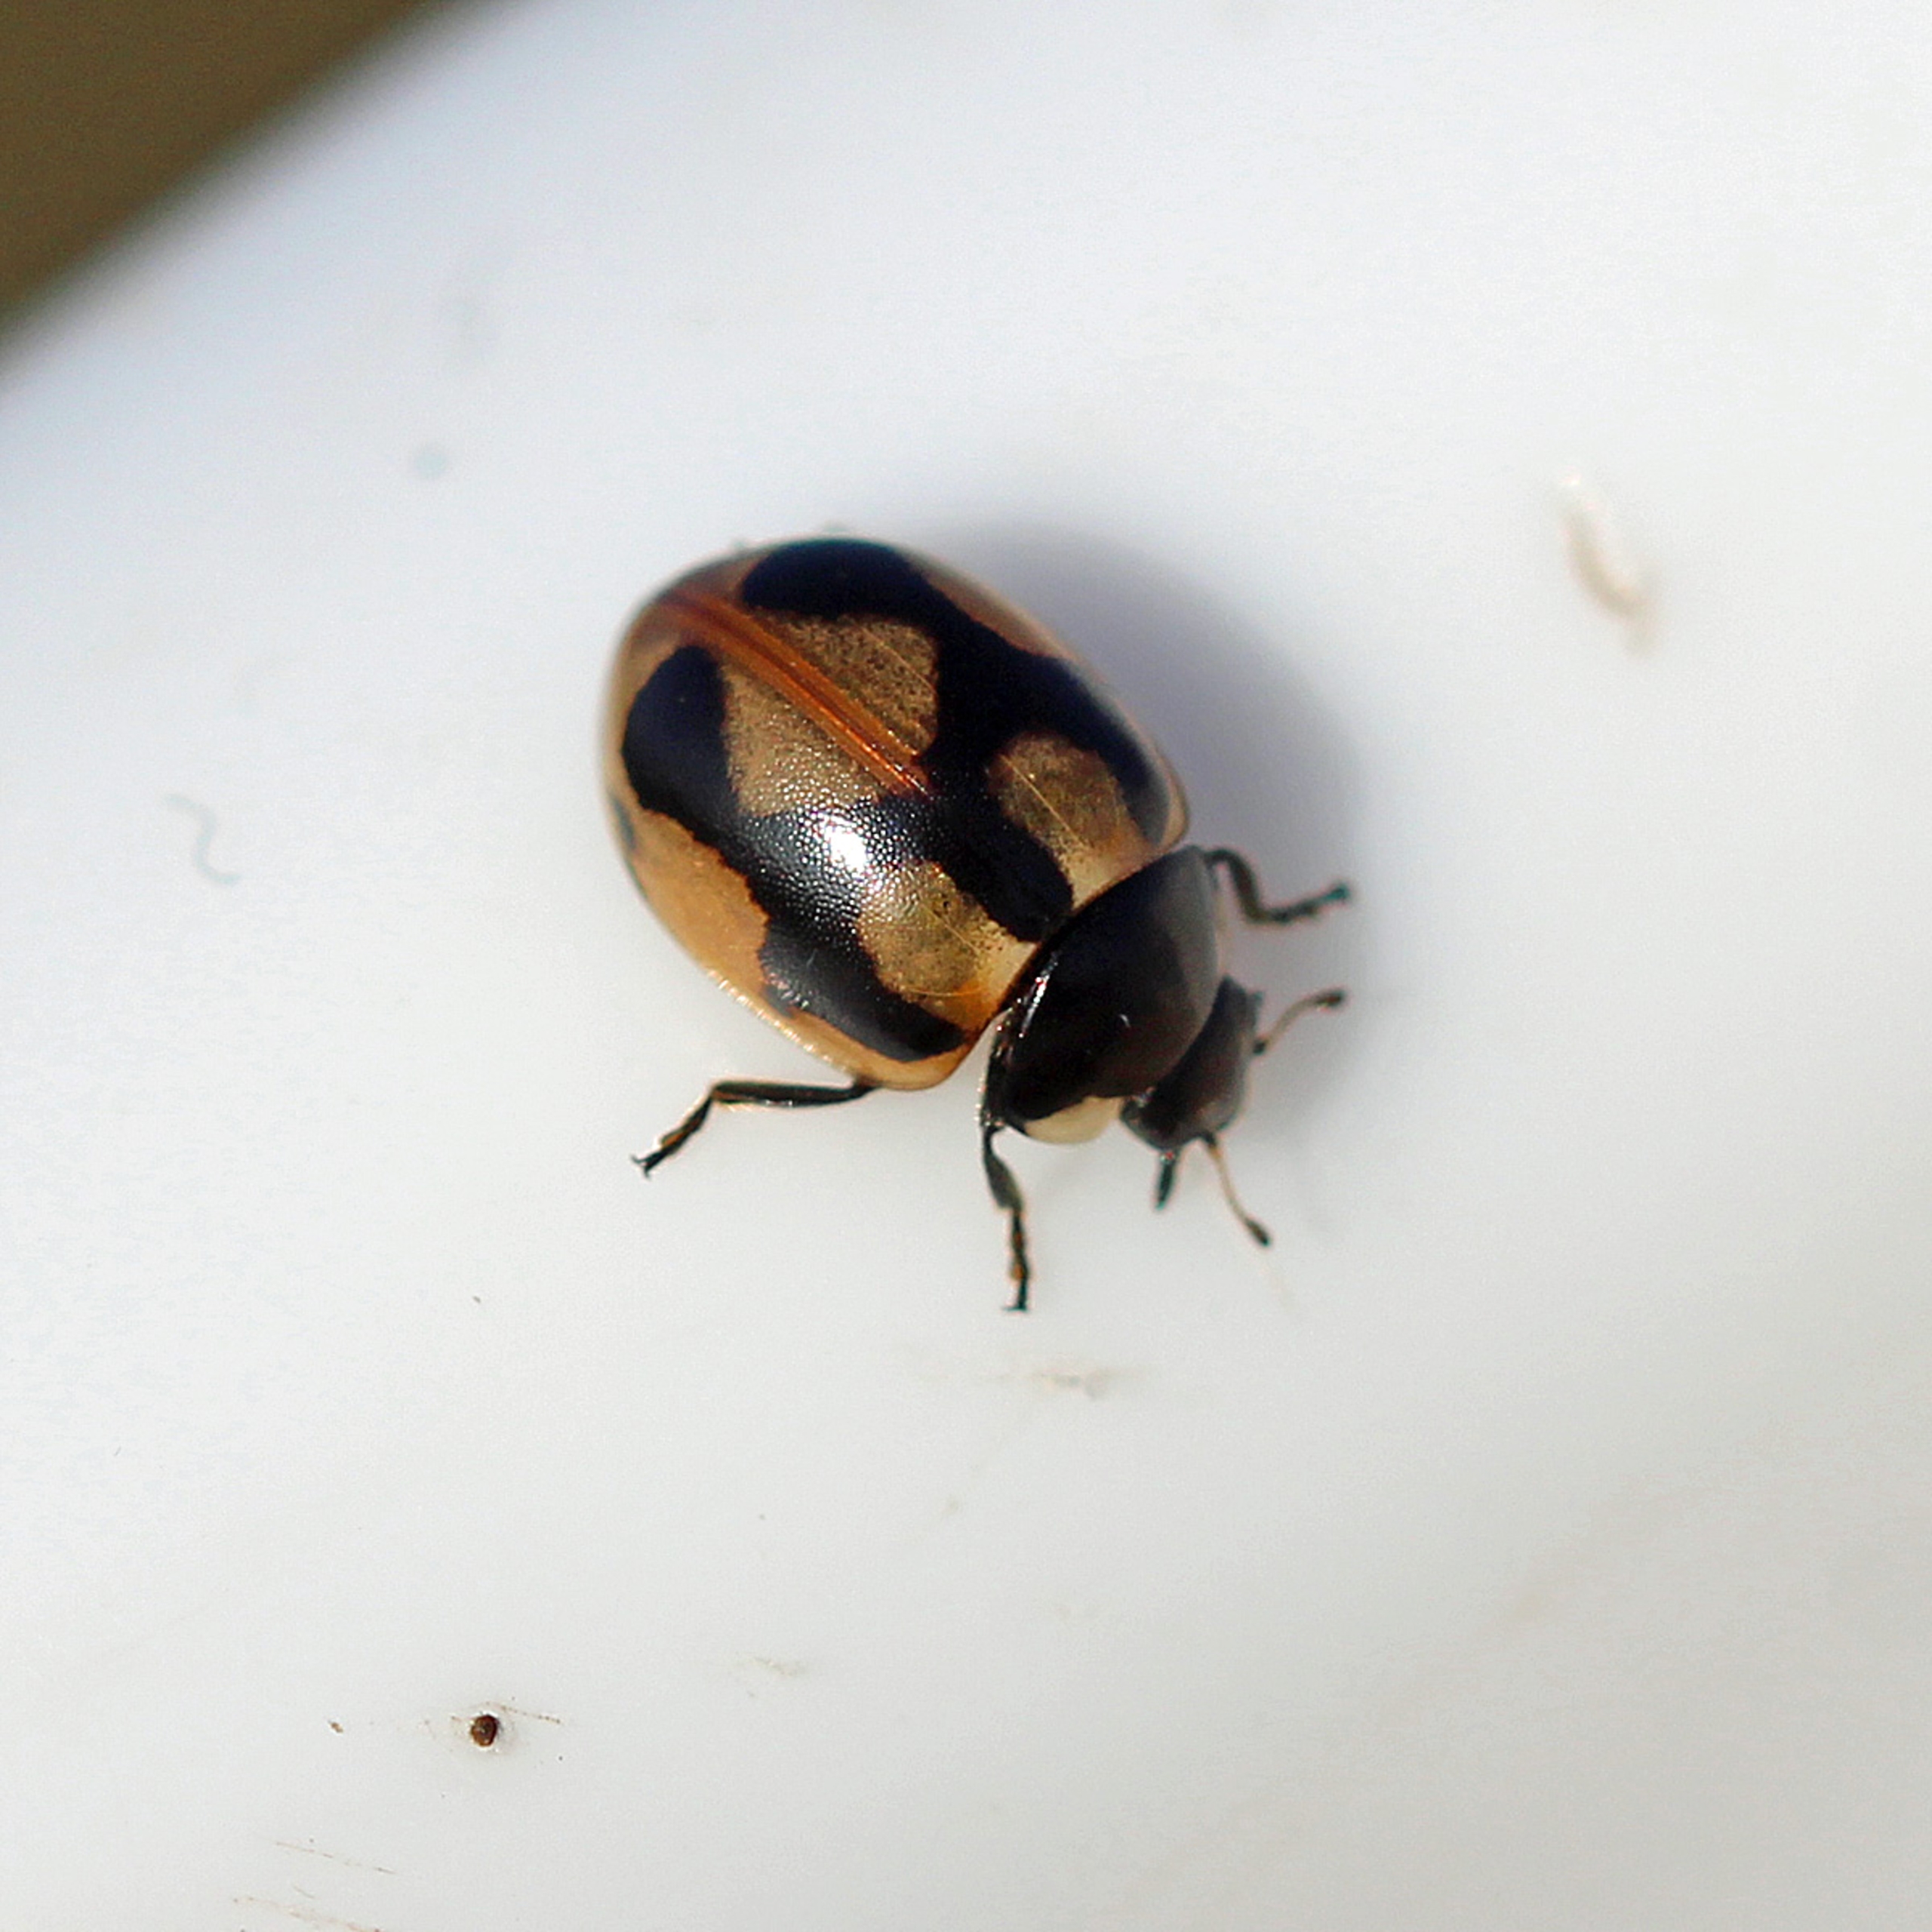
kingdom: Animalia
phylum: Arthropoda
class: Insecta
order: Coleoptera
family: Coccinellidae
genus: Coccinella
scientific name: Coccinella hieroglyphica
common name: Hieroglyf-mariehøne
